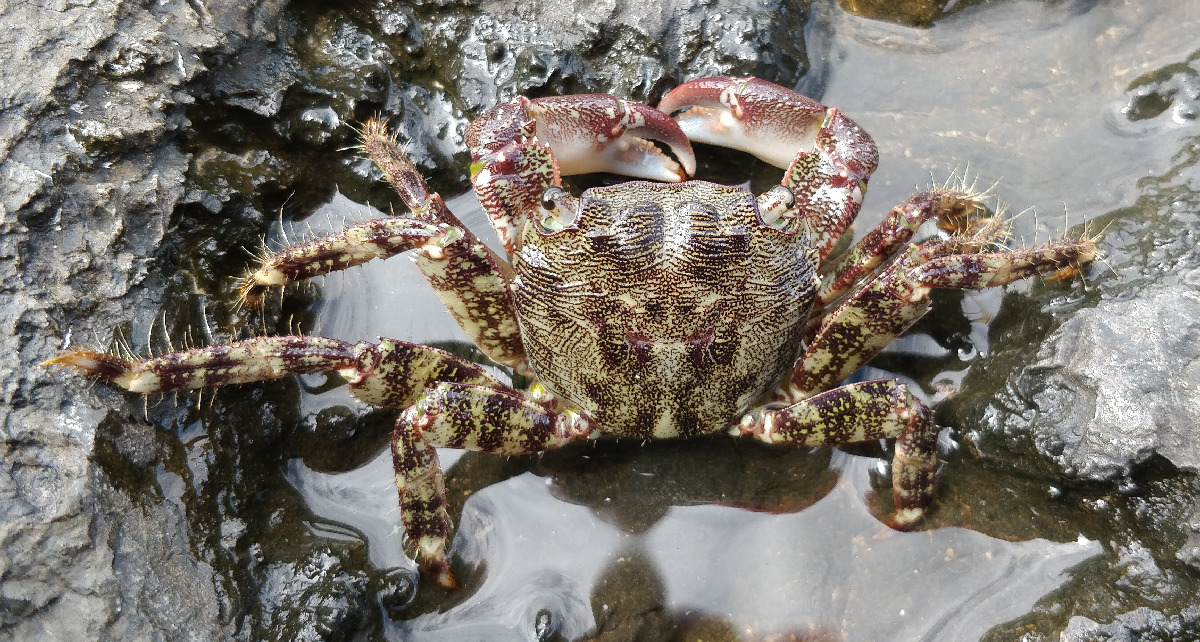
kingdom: Animalia
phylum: Arthropoda
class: Malacostraca
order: Decapoda
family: Grapsidae
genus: Pachygrapsus
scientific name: Pachygrapsus marmoratus
